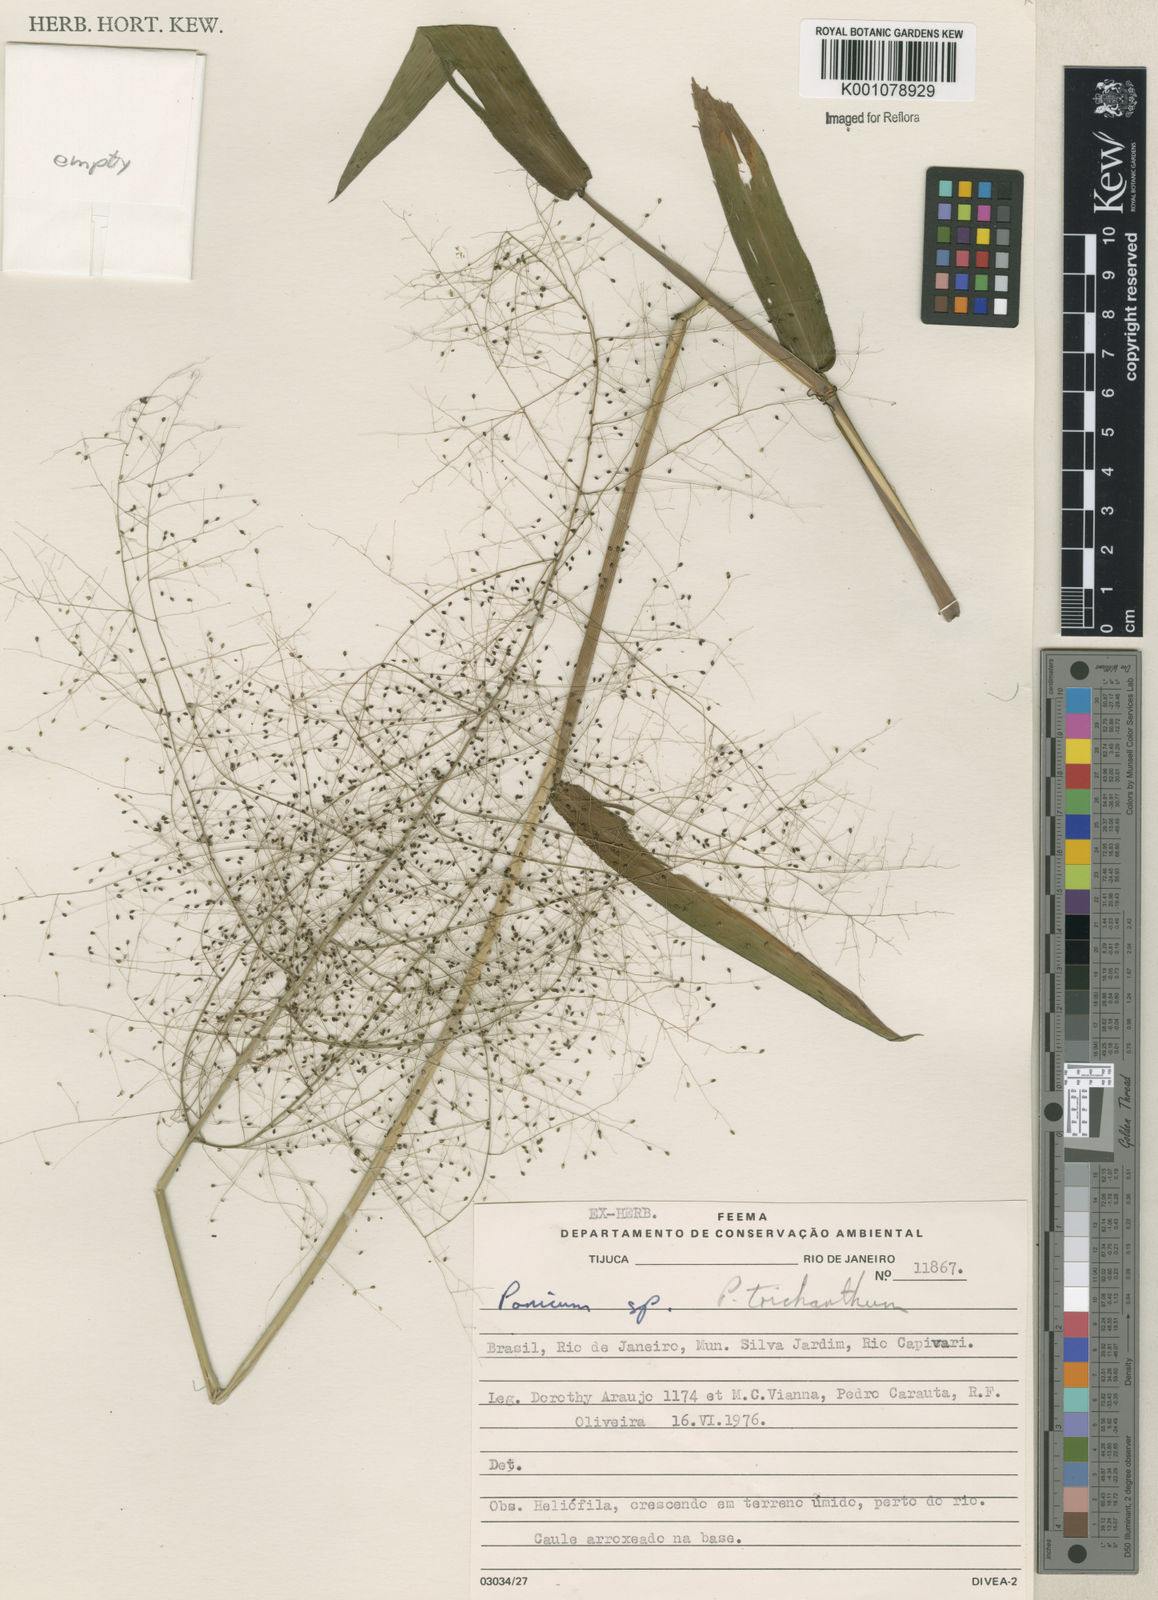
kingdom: Plantae
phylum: Tracheophyta
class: Liliopsida
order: Poales
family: Poaceae
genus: Panicum
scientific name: Panicum
